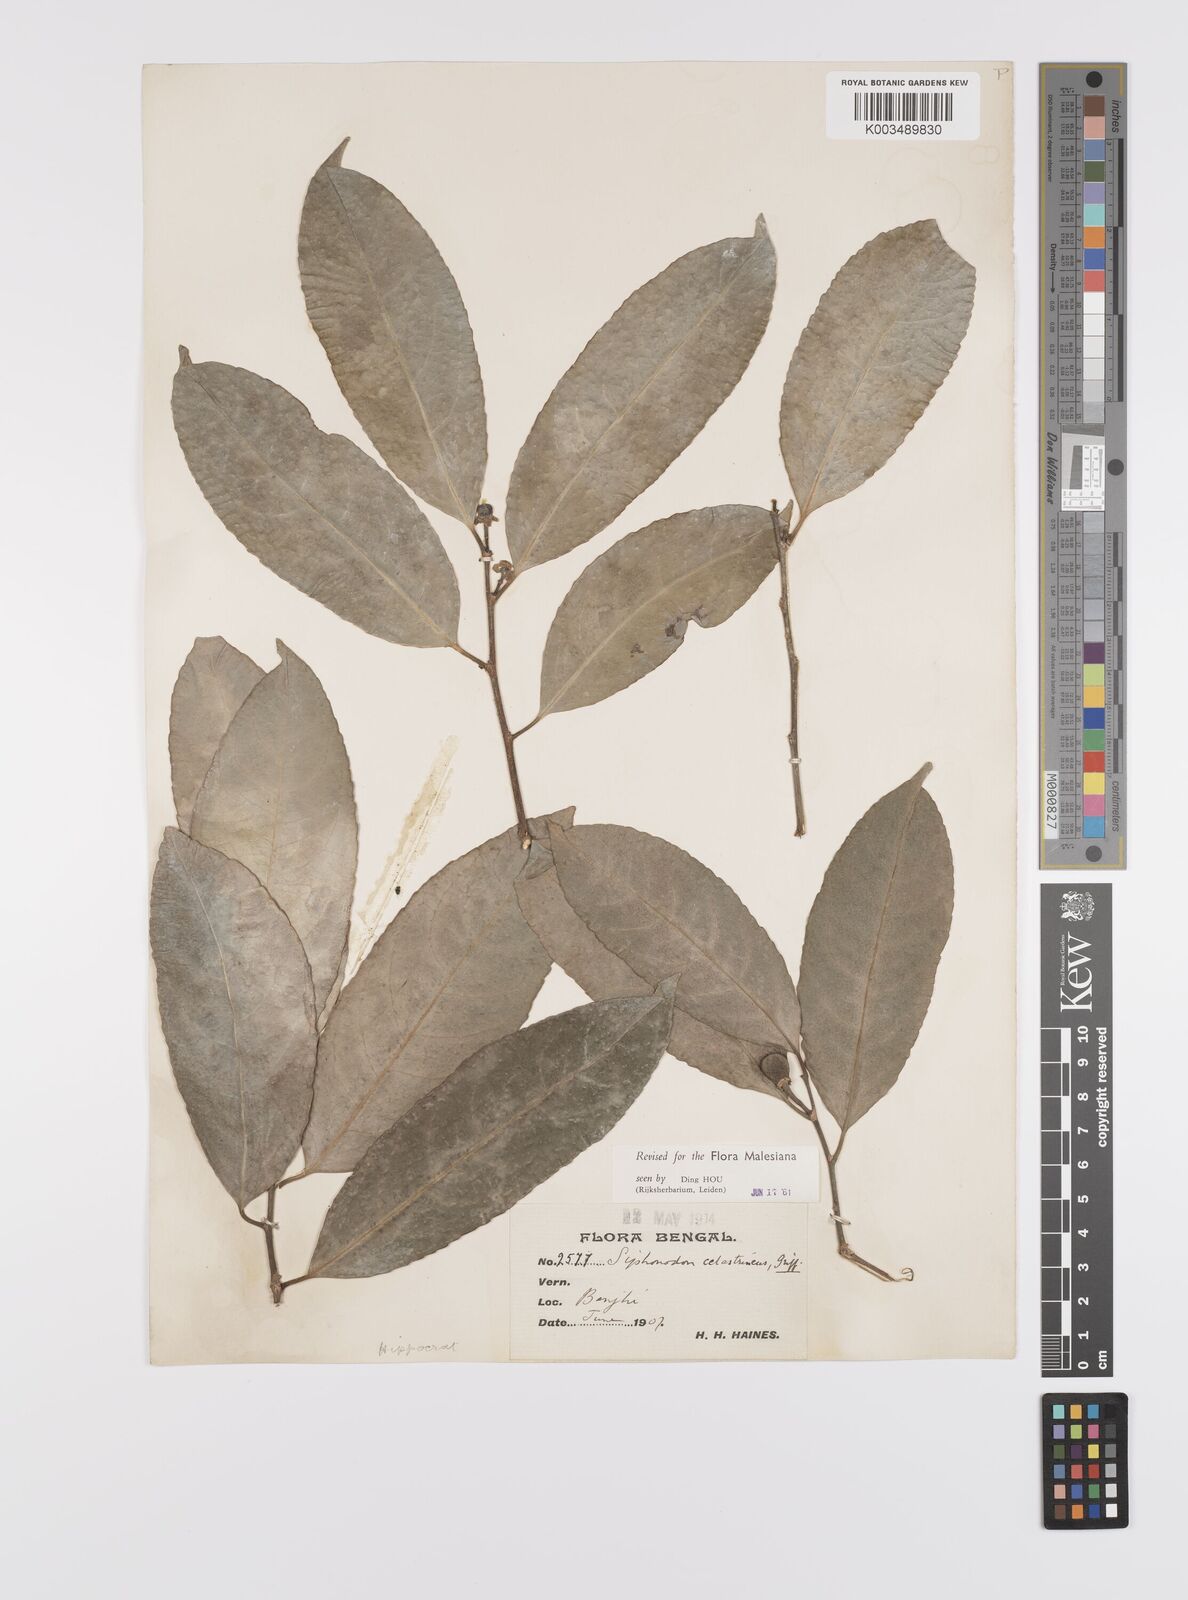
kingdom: Plantae
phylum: Tracheophyta
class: Magnoliopsida
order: Celastrales
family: Celastraceae
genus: Siphonodon
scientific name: Siphonodon celastrineus
